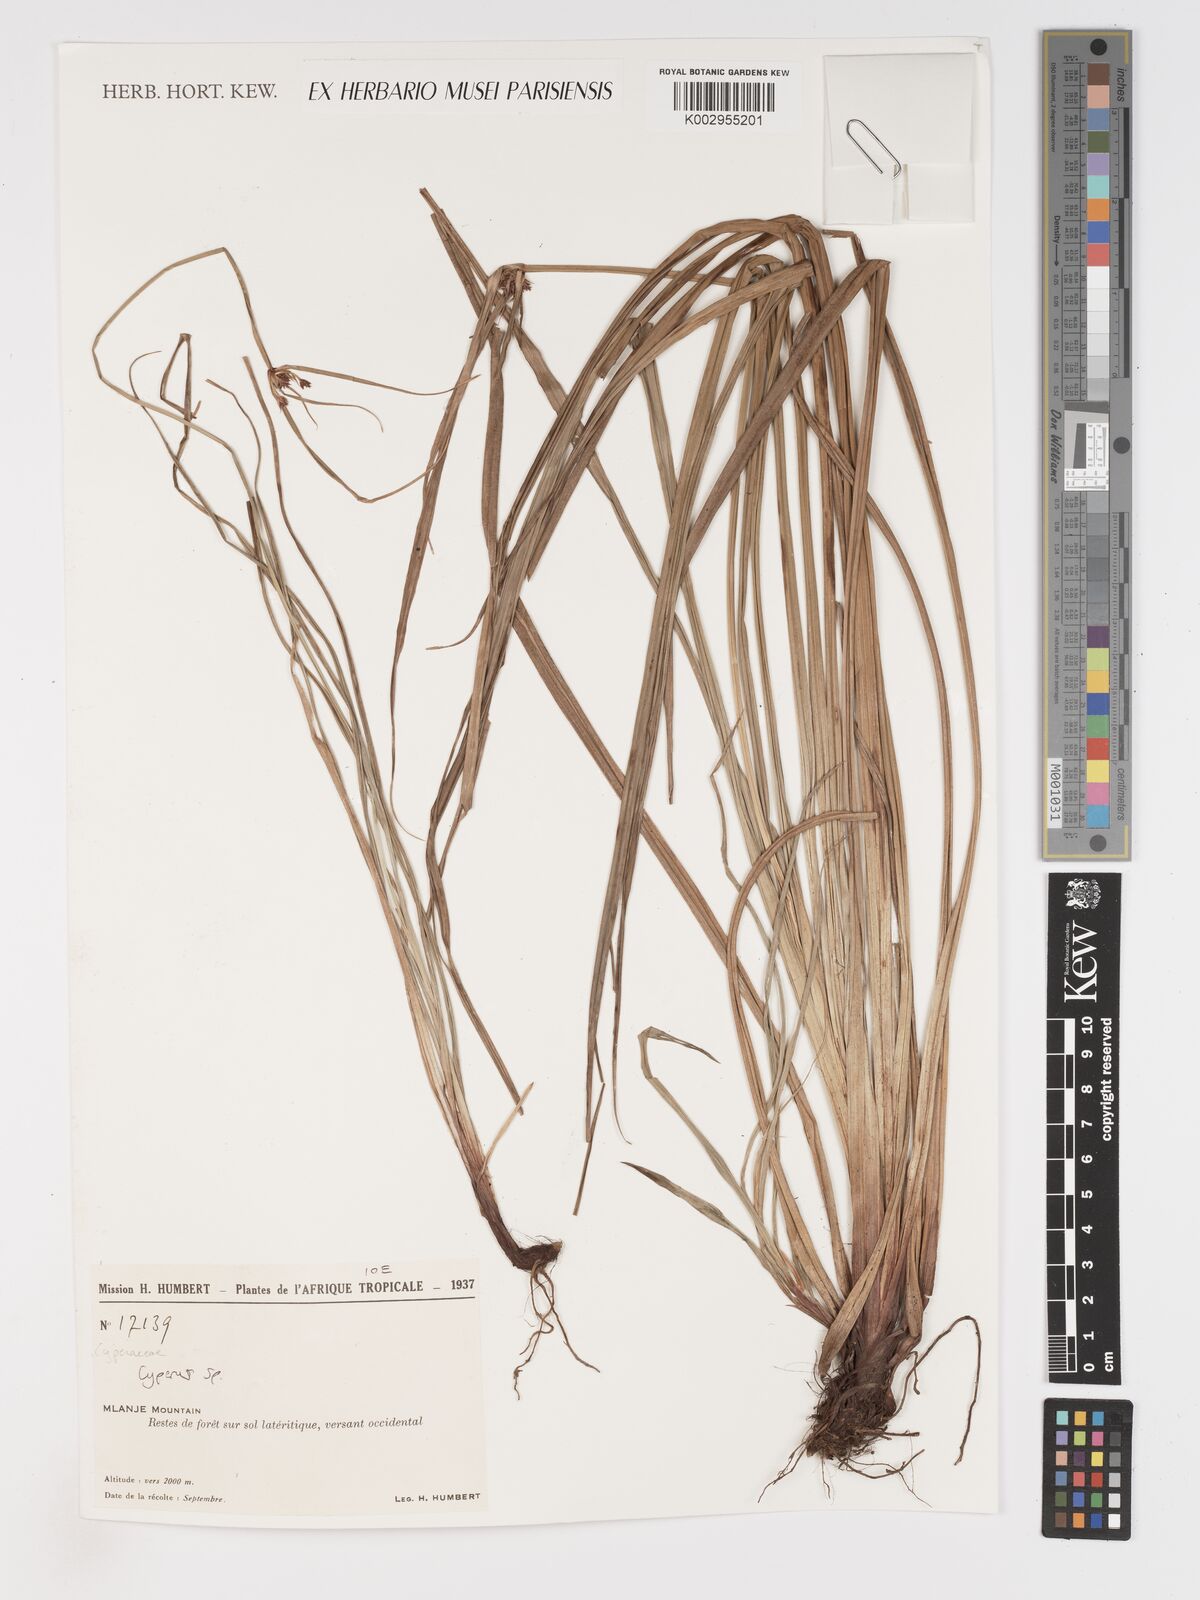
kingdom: Plantae
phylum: Tracheophyta
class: Liliopsida
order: Poales
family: Cyperaceae
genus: Cyperus
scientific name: Cyperus
